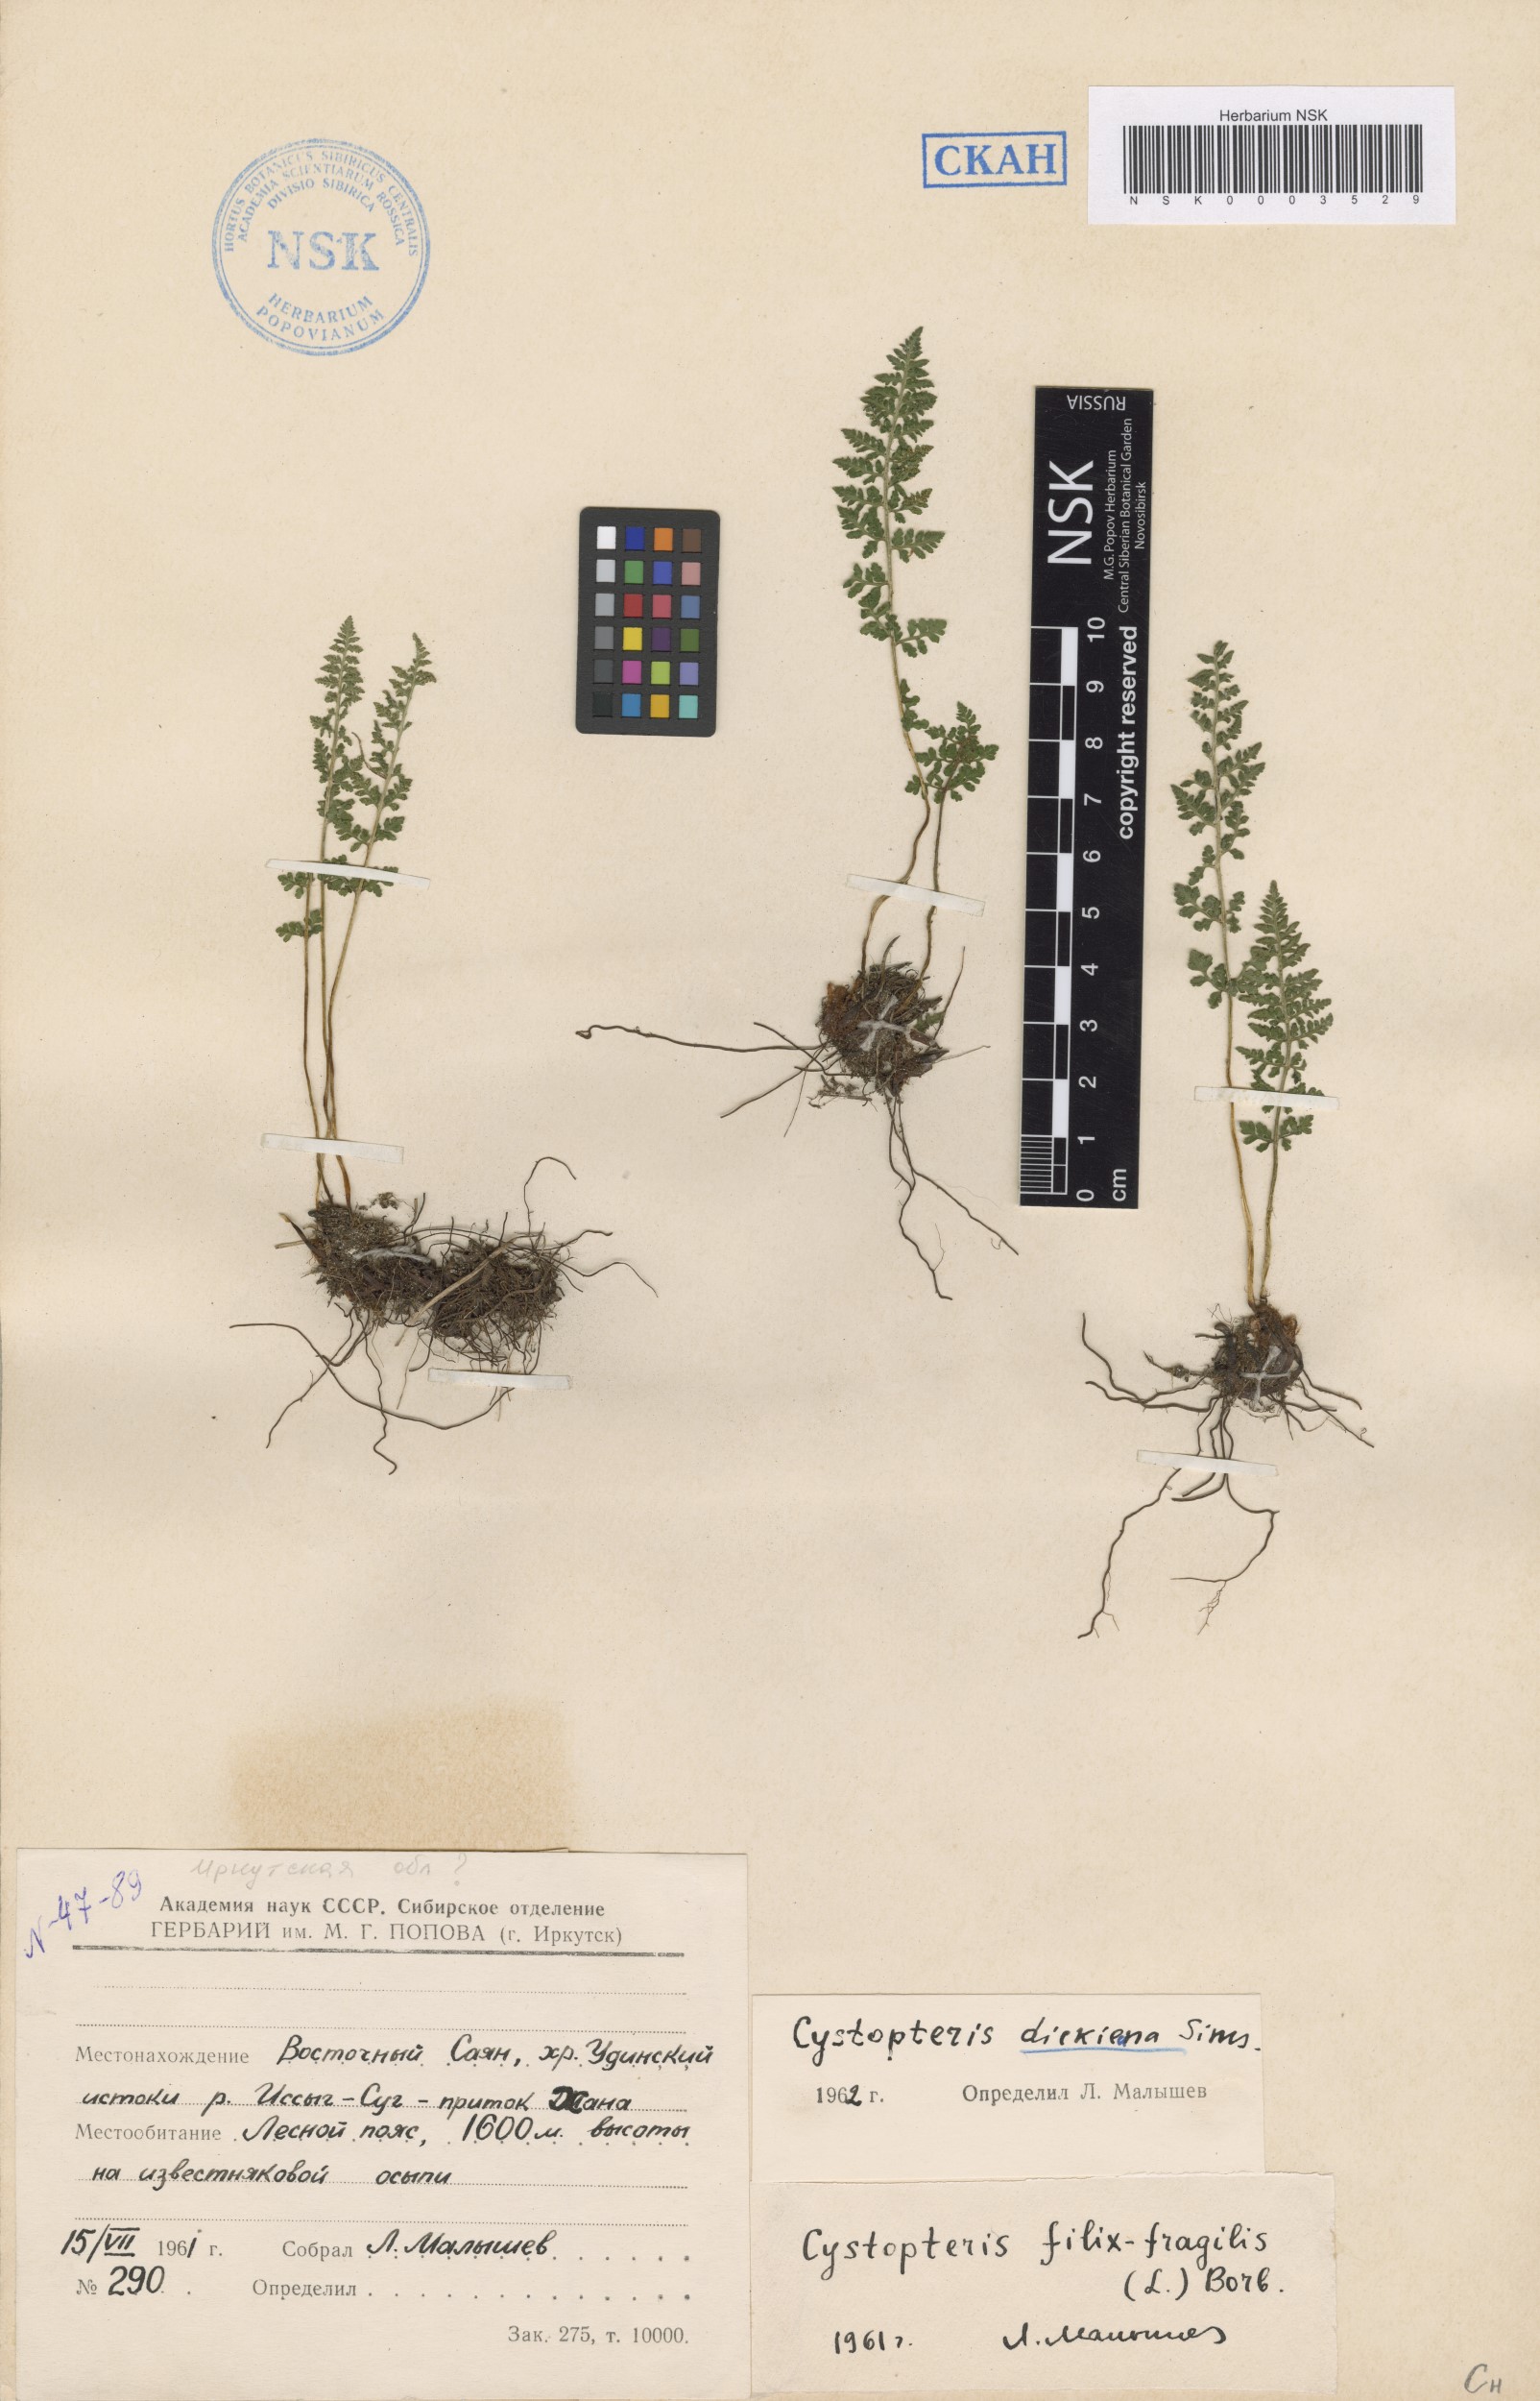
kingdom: Plantae
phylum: Tracheophyta
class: Polypodiopsida
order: Polypodiales
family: Cystopteridaceae
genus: Cystopteris
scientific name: Cystopteris dickieana
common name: Dickie's bladder-fern
